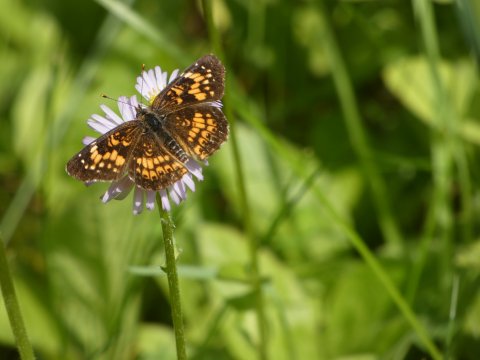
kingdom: Animalia
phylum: Arthropoda
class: Insecta
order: Lepidoptera
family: Nymphalidae
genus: Chlosyne
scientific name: Chlosyne harrisii
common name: Harris's Checkerspot
